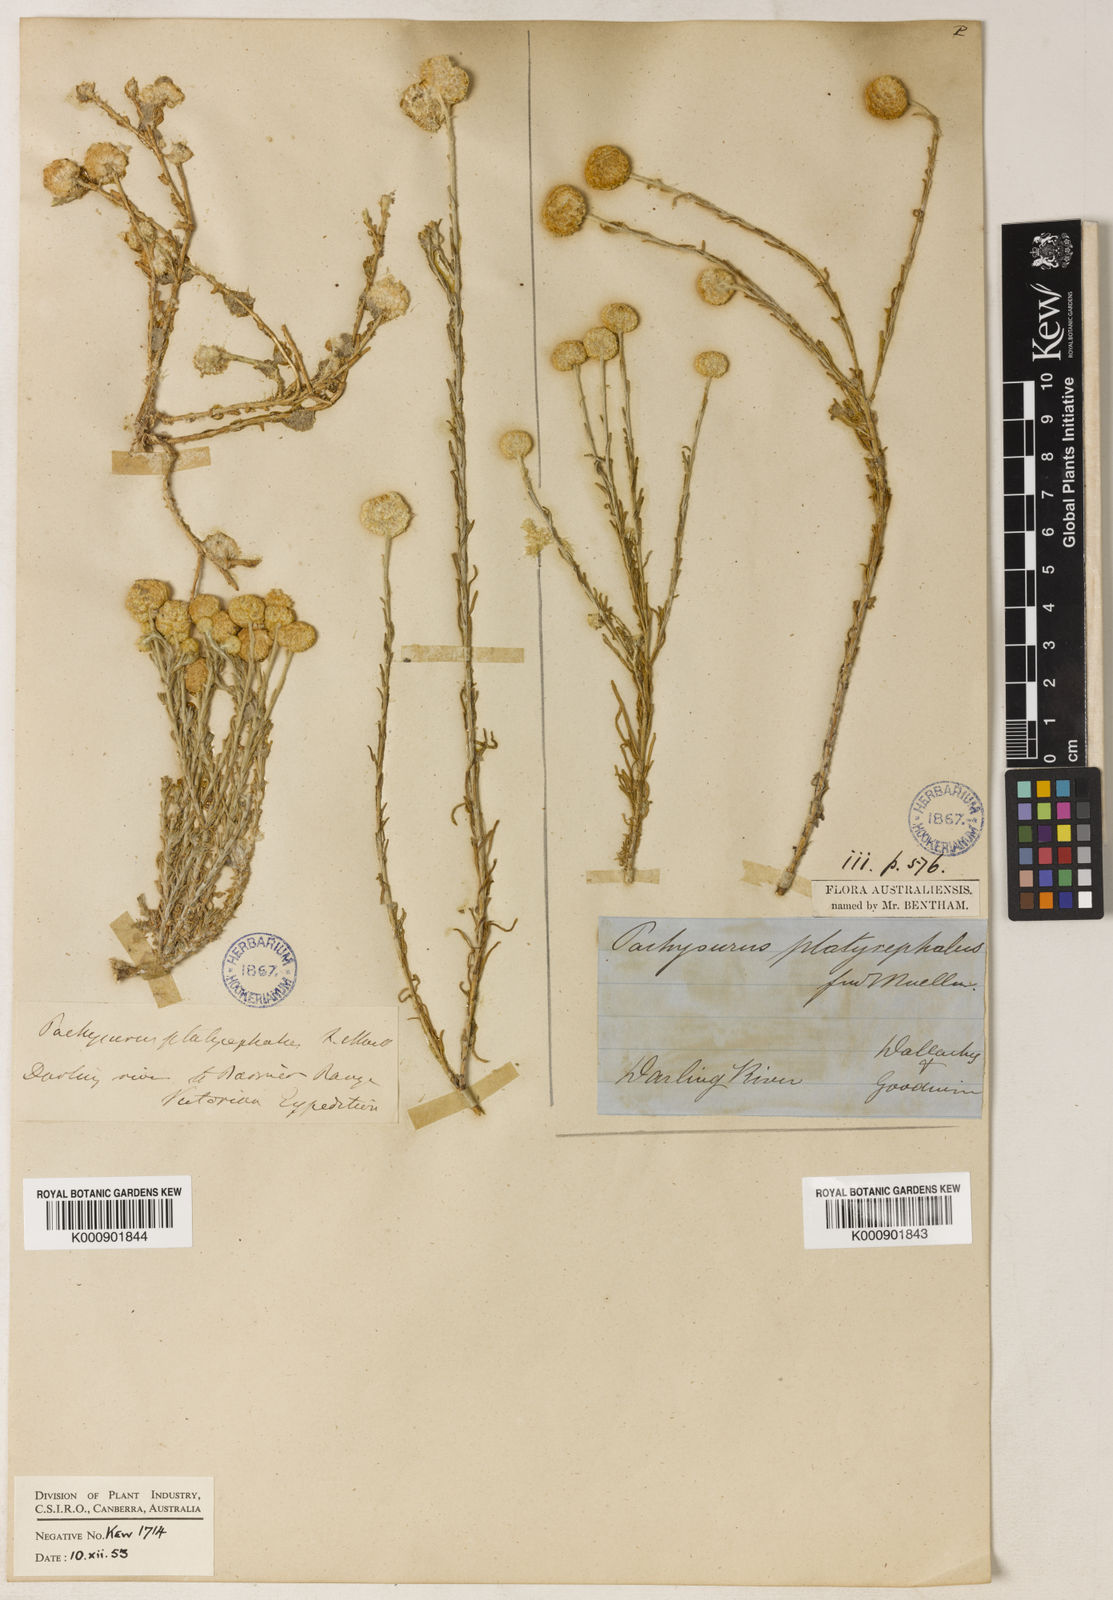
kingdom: Plantae
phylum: Tracheophyta
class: Magnoliopsida
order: Asterales
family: Asteraceae
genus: Calocephalus
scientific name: Calocephalus platycephalus
